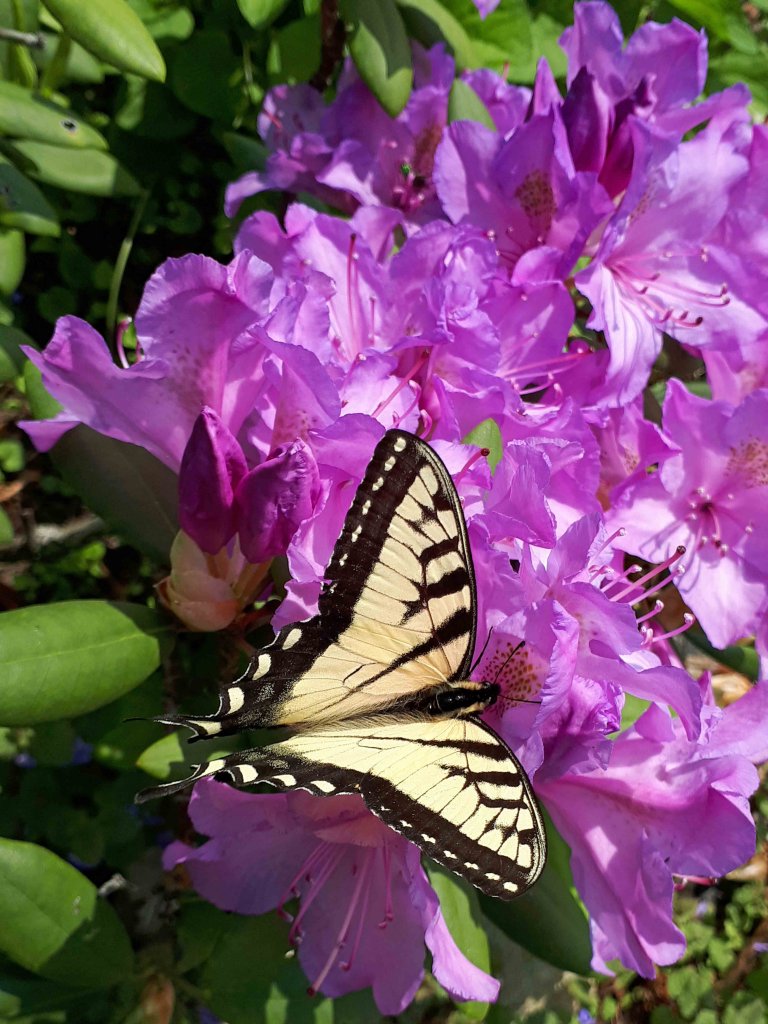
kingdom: Animalia
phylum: Arthropoda
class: Insecta
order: Lepidoptera
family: Papilionidae
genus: Pterourus
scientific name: Pterourus glaucus
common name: Eastern Tiger Swallowtail
